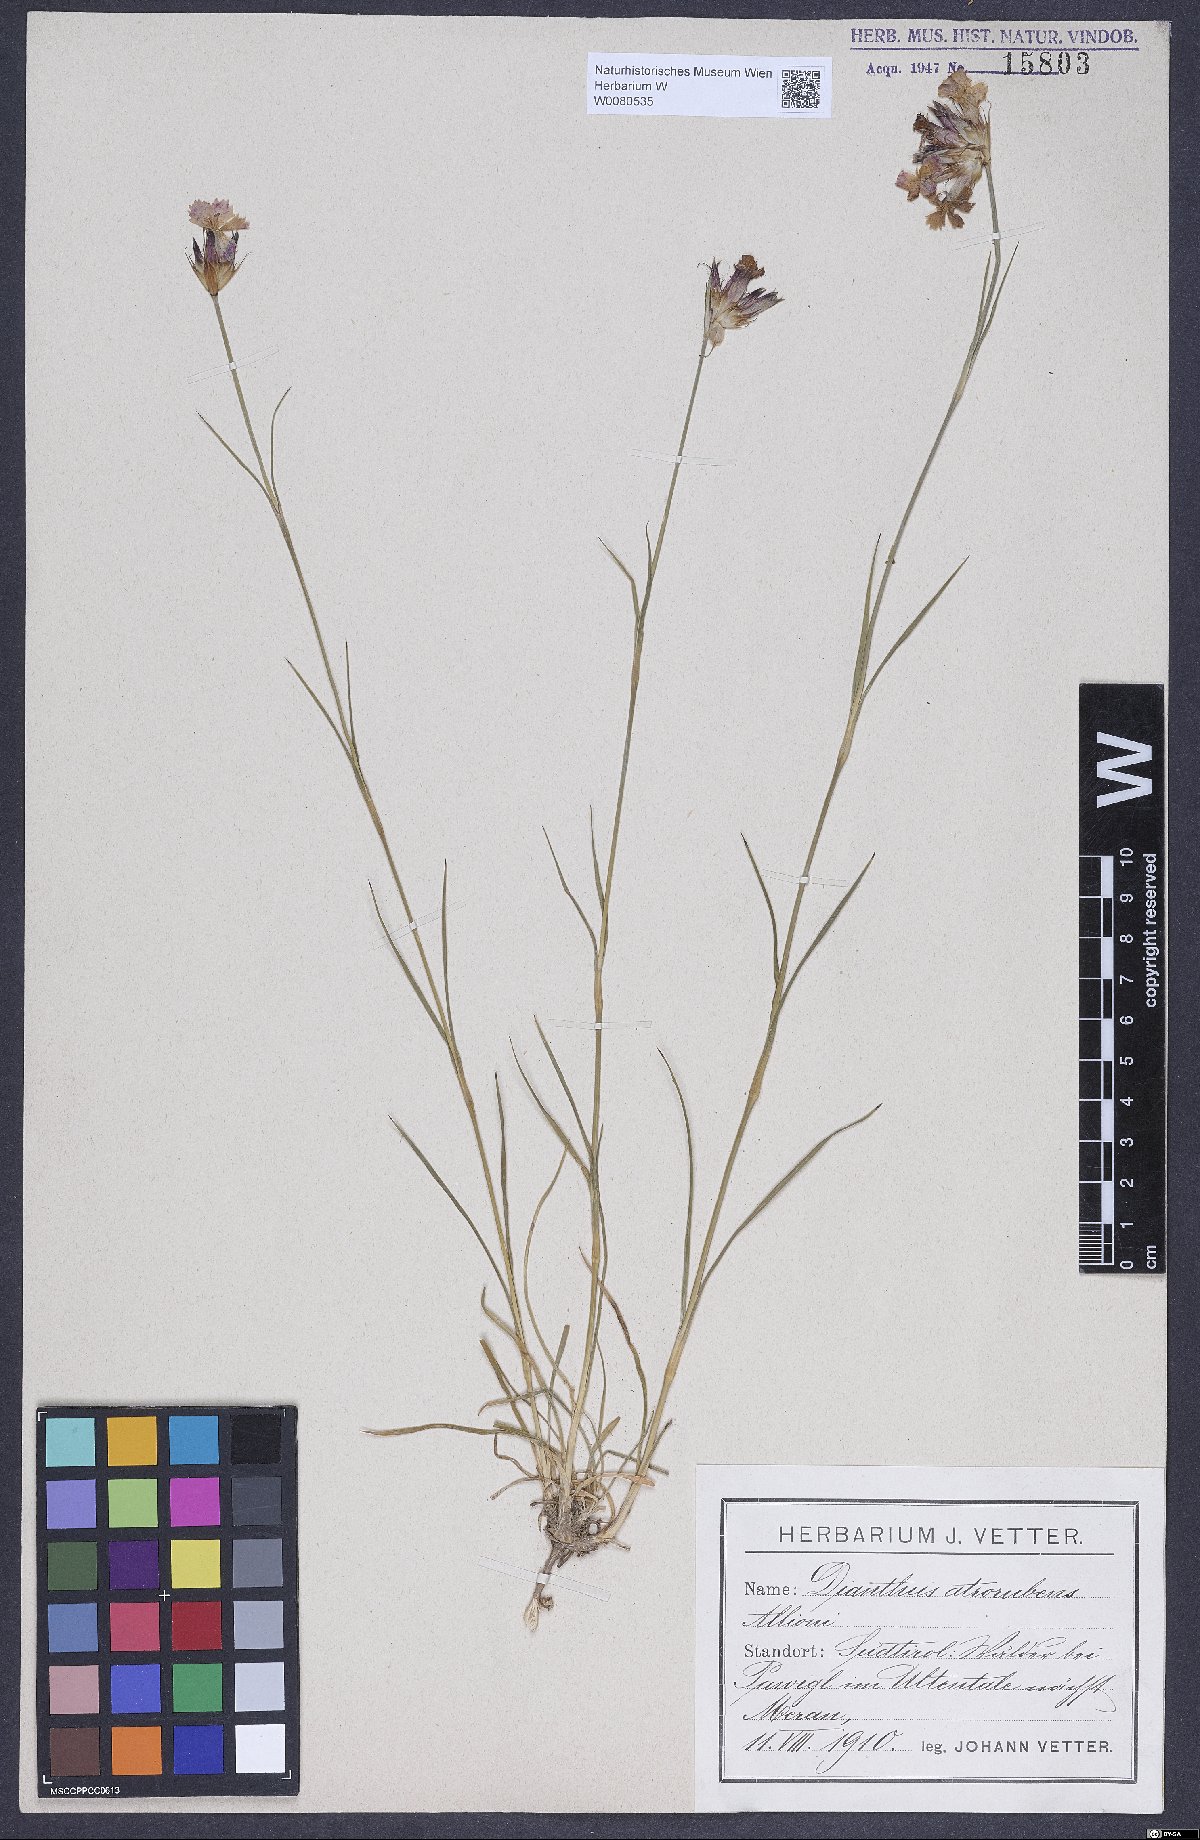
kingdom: Plantae
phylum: Tracheophyta
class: Magnoliopsida
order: Caryophyllales
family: Caryophyllaceae
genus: Dianthus
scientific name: Dianthus carthusianorum
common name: Carthusian pink
